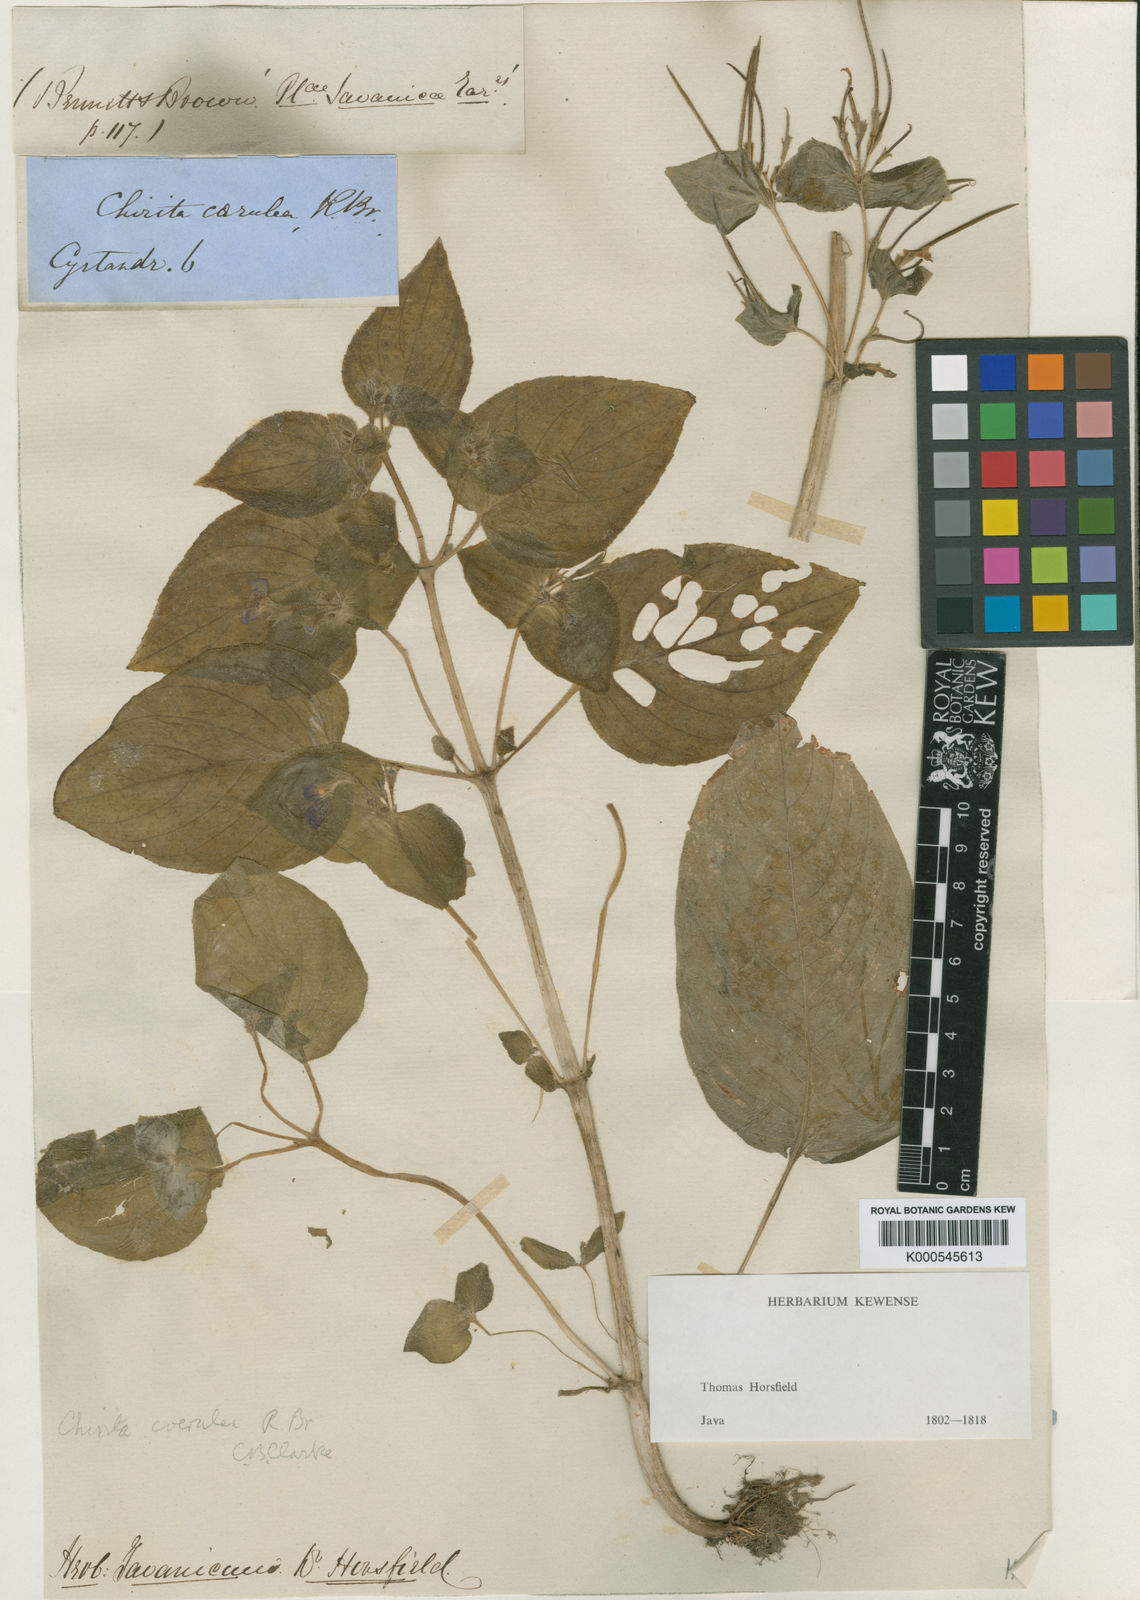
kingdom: Plantae
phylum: Tracheophyta
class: Magnoliopsida
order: Lamiales
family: Gesneriaceae
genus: Microchirita
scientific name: Microchirita caerulea
